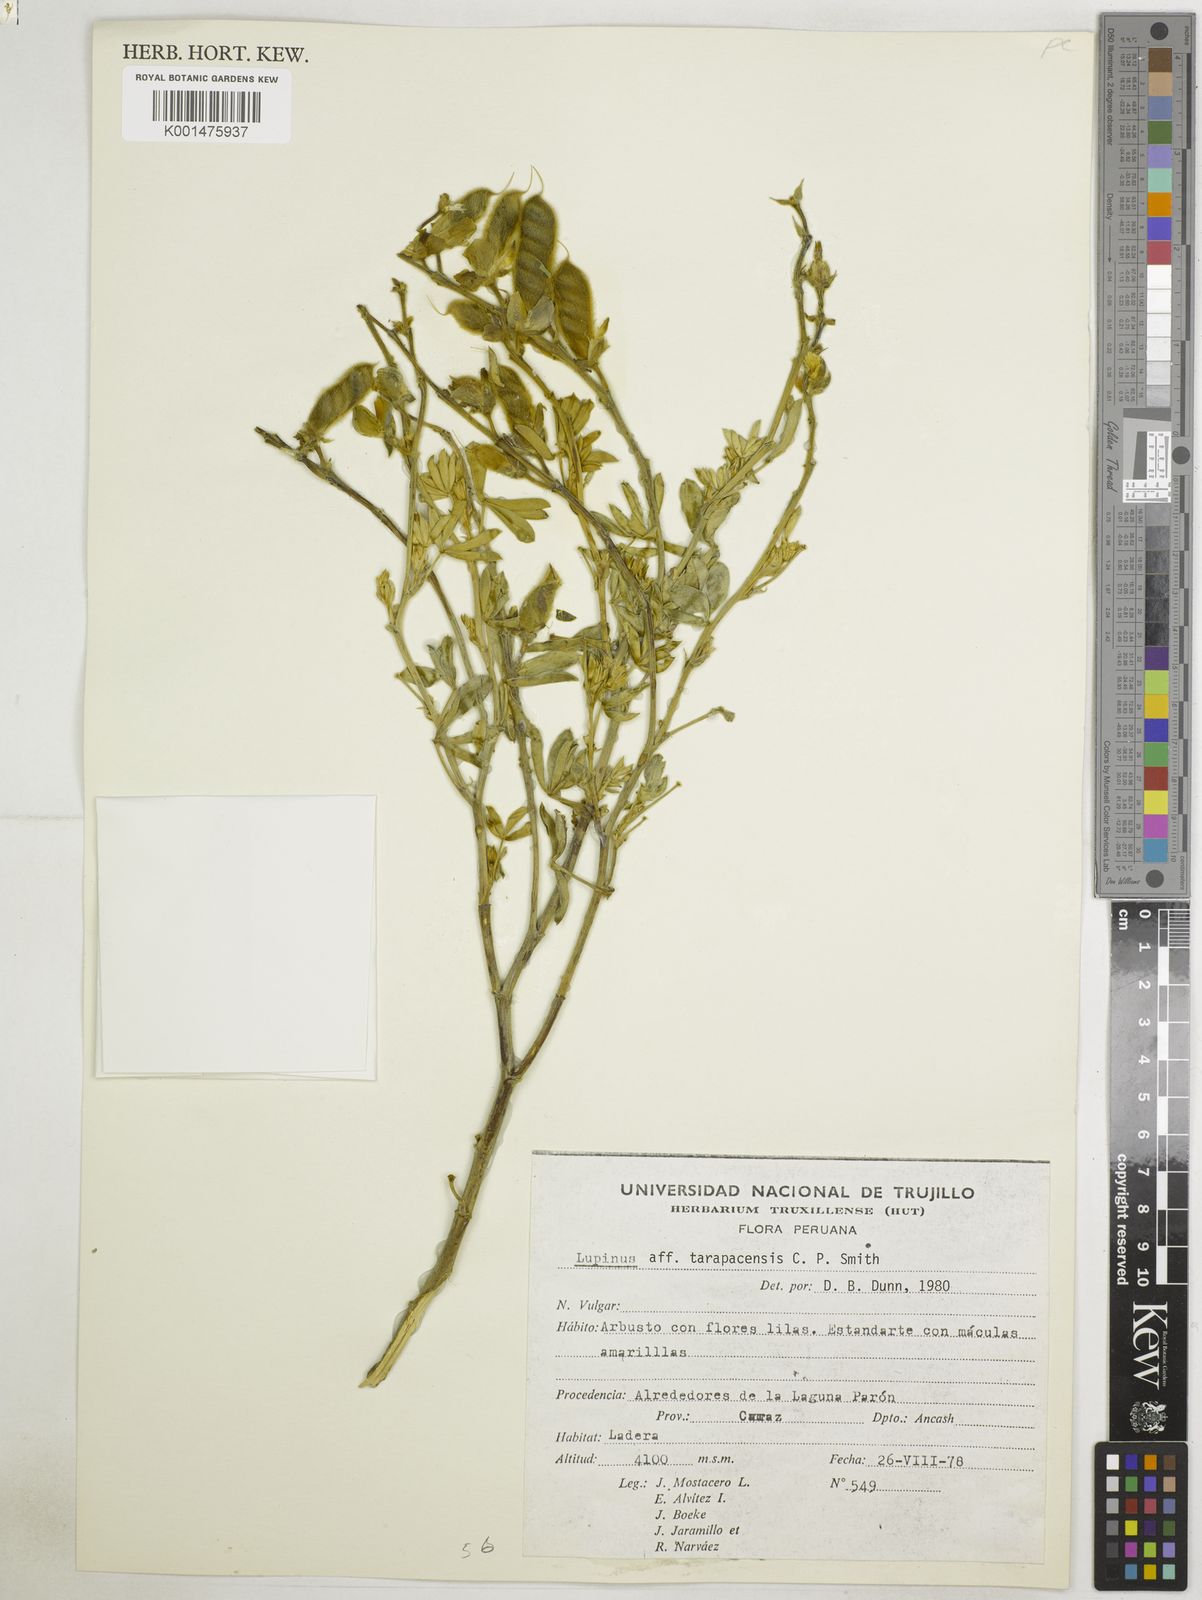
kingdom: Plantae
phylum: Tracheophyta
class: Magnoliopsida
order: Fabales
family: Fabaceae
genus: Lupinus
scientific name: Lupinus tarapacensis
